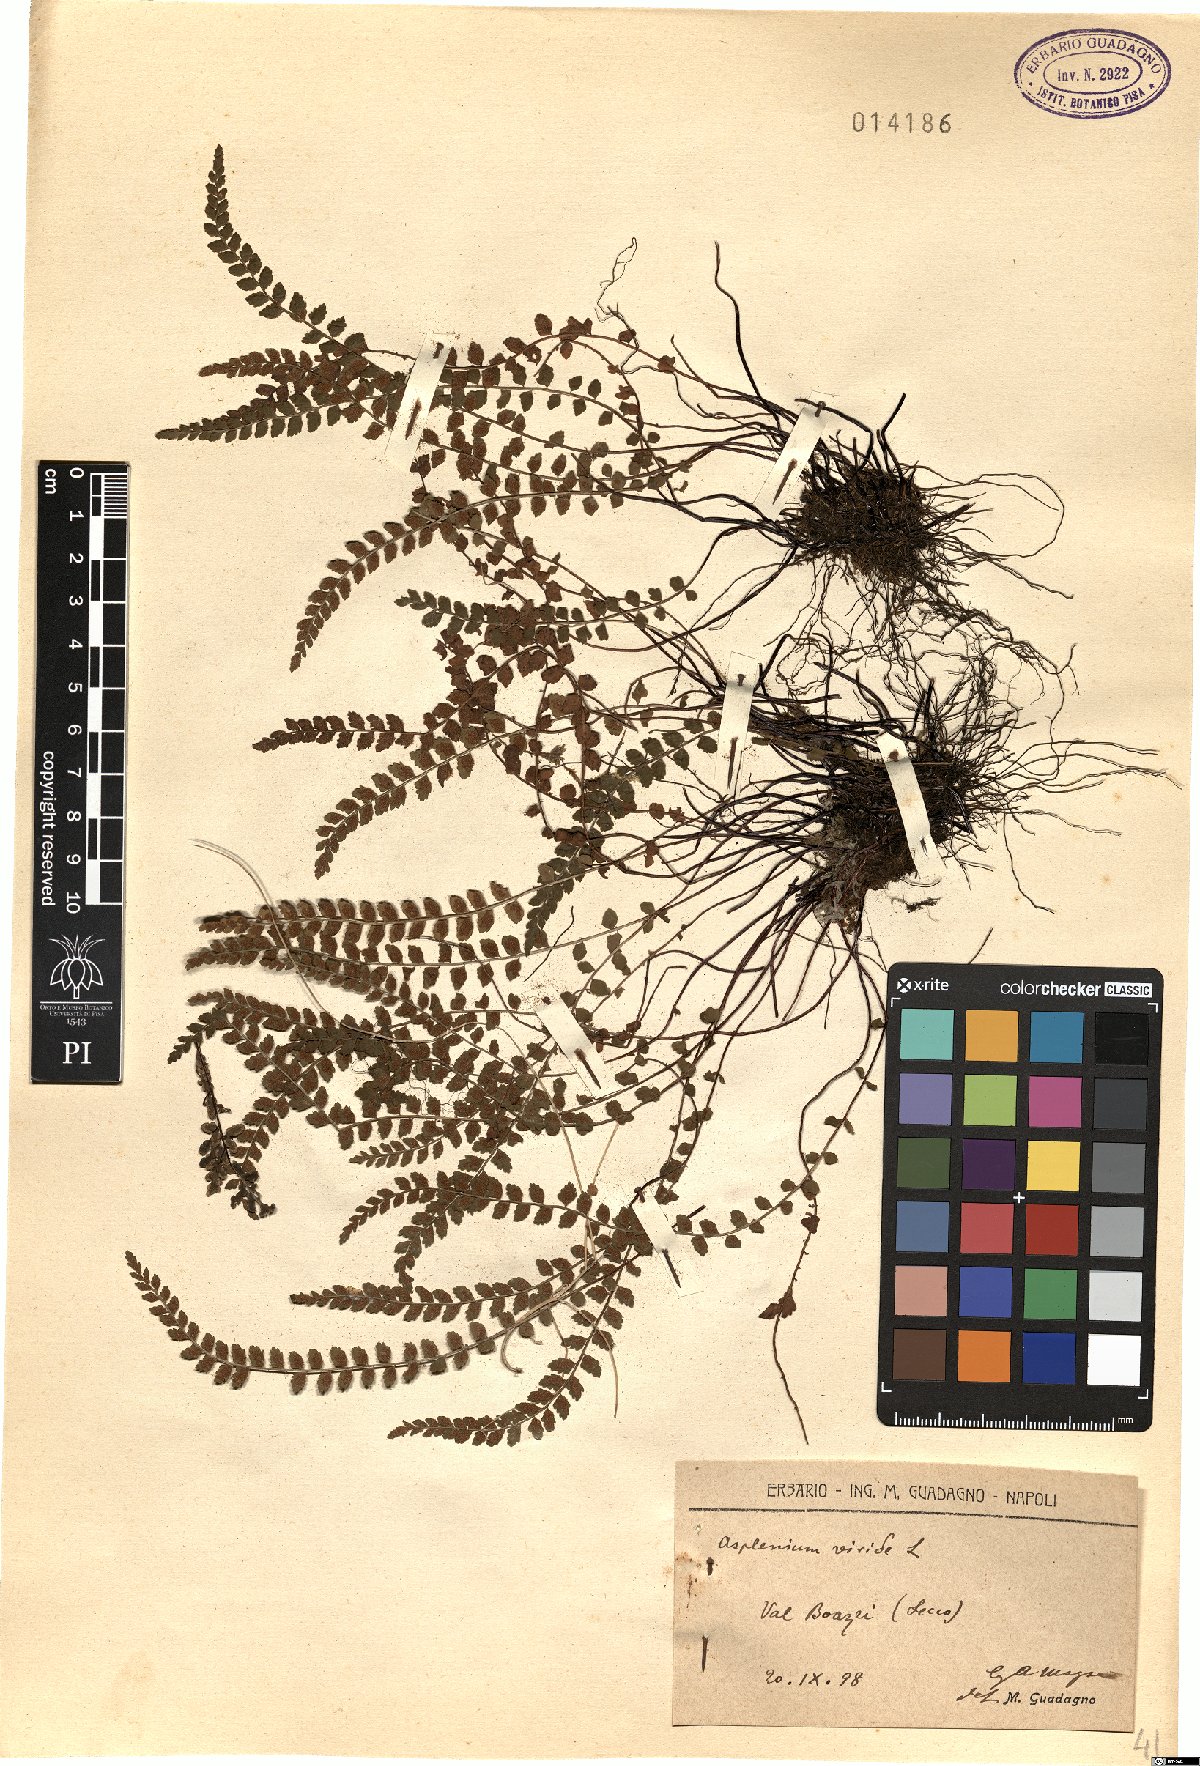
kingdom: Plantae
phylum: Tracheophyta
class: Polypodiopsida
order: Polypodiales
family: Aspleniaceae
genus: Asplenium
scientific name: Asplenium viride
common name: Green spleenwort
